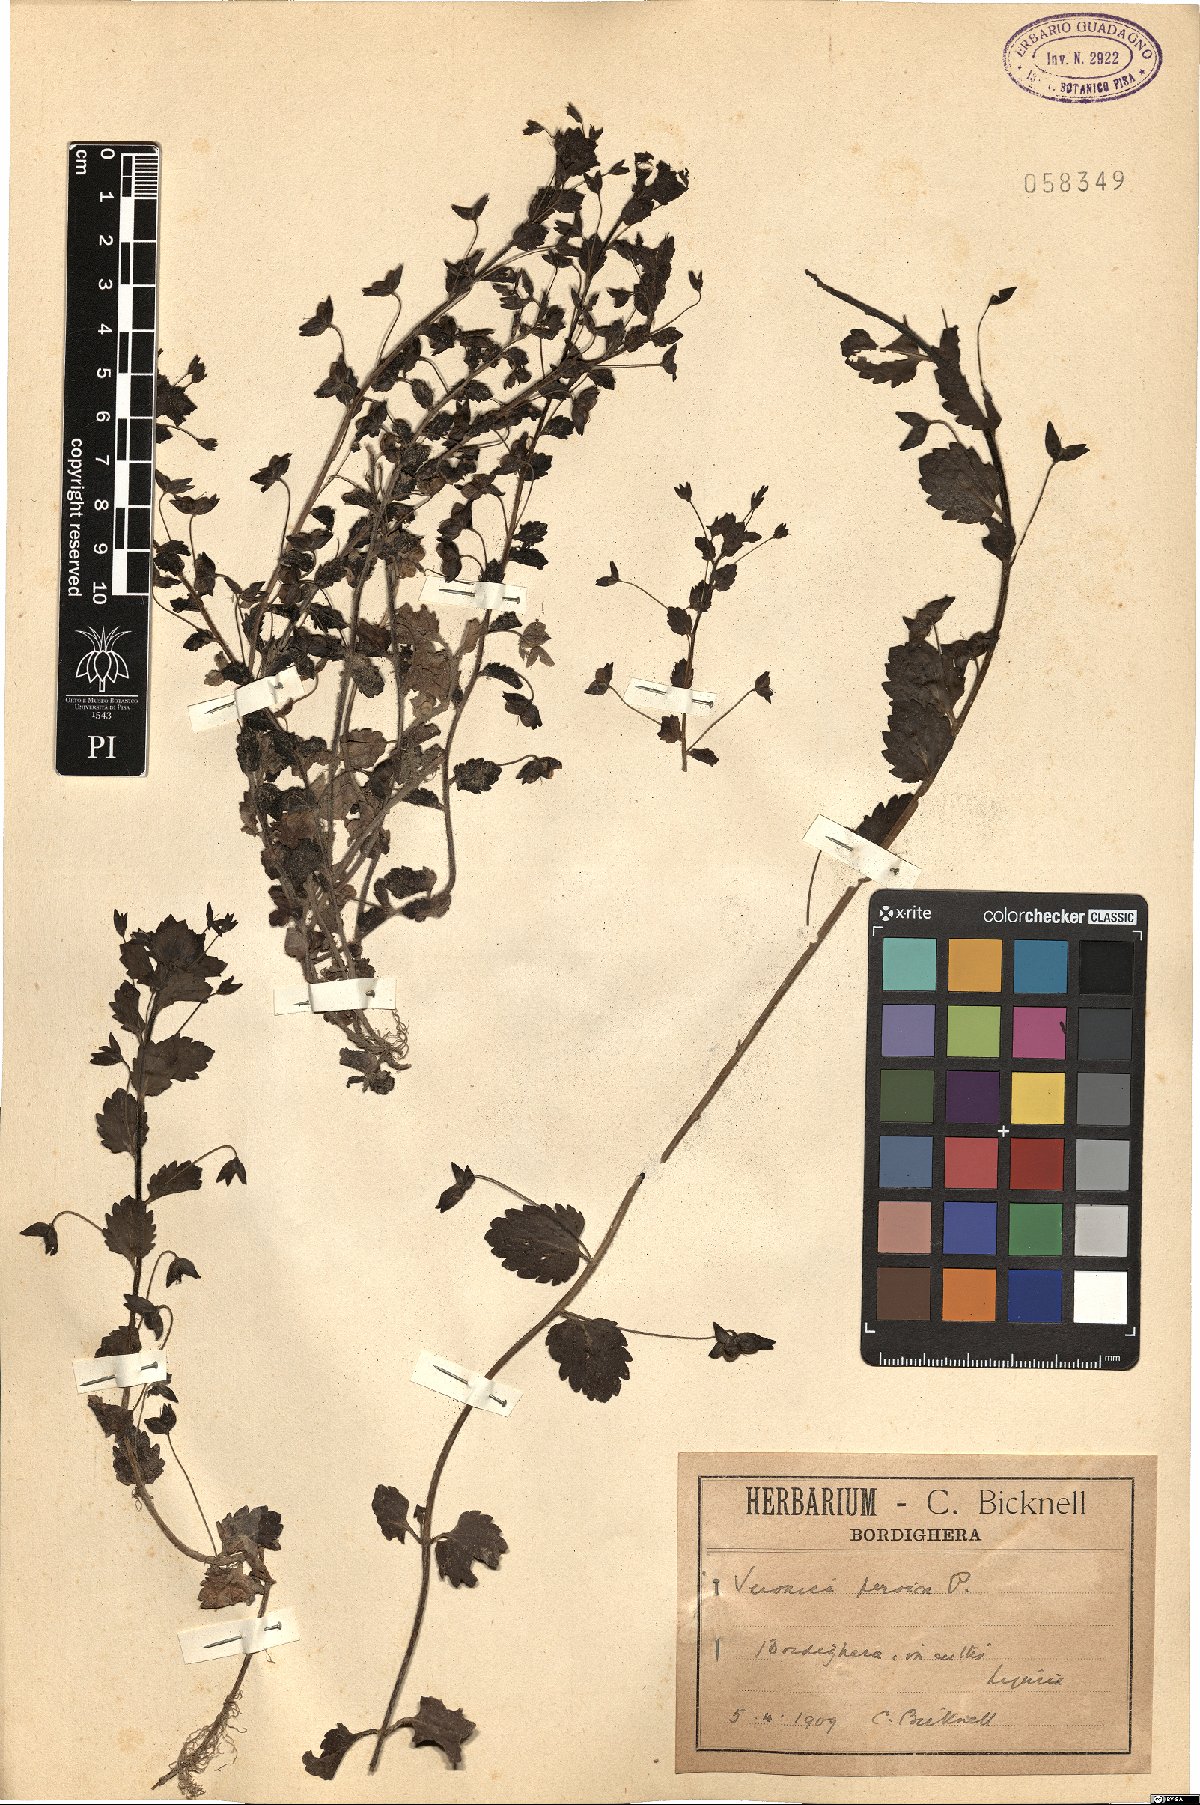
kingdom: Plantae
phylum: Tracheophyta
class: Magnoliopsida
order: Lamiales
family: Plantaginaceae
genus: Veronica
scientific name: Veronica persica
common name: Common field-speedwell
